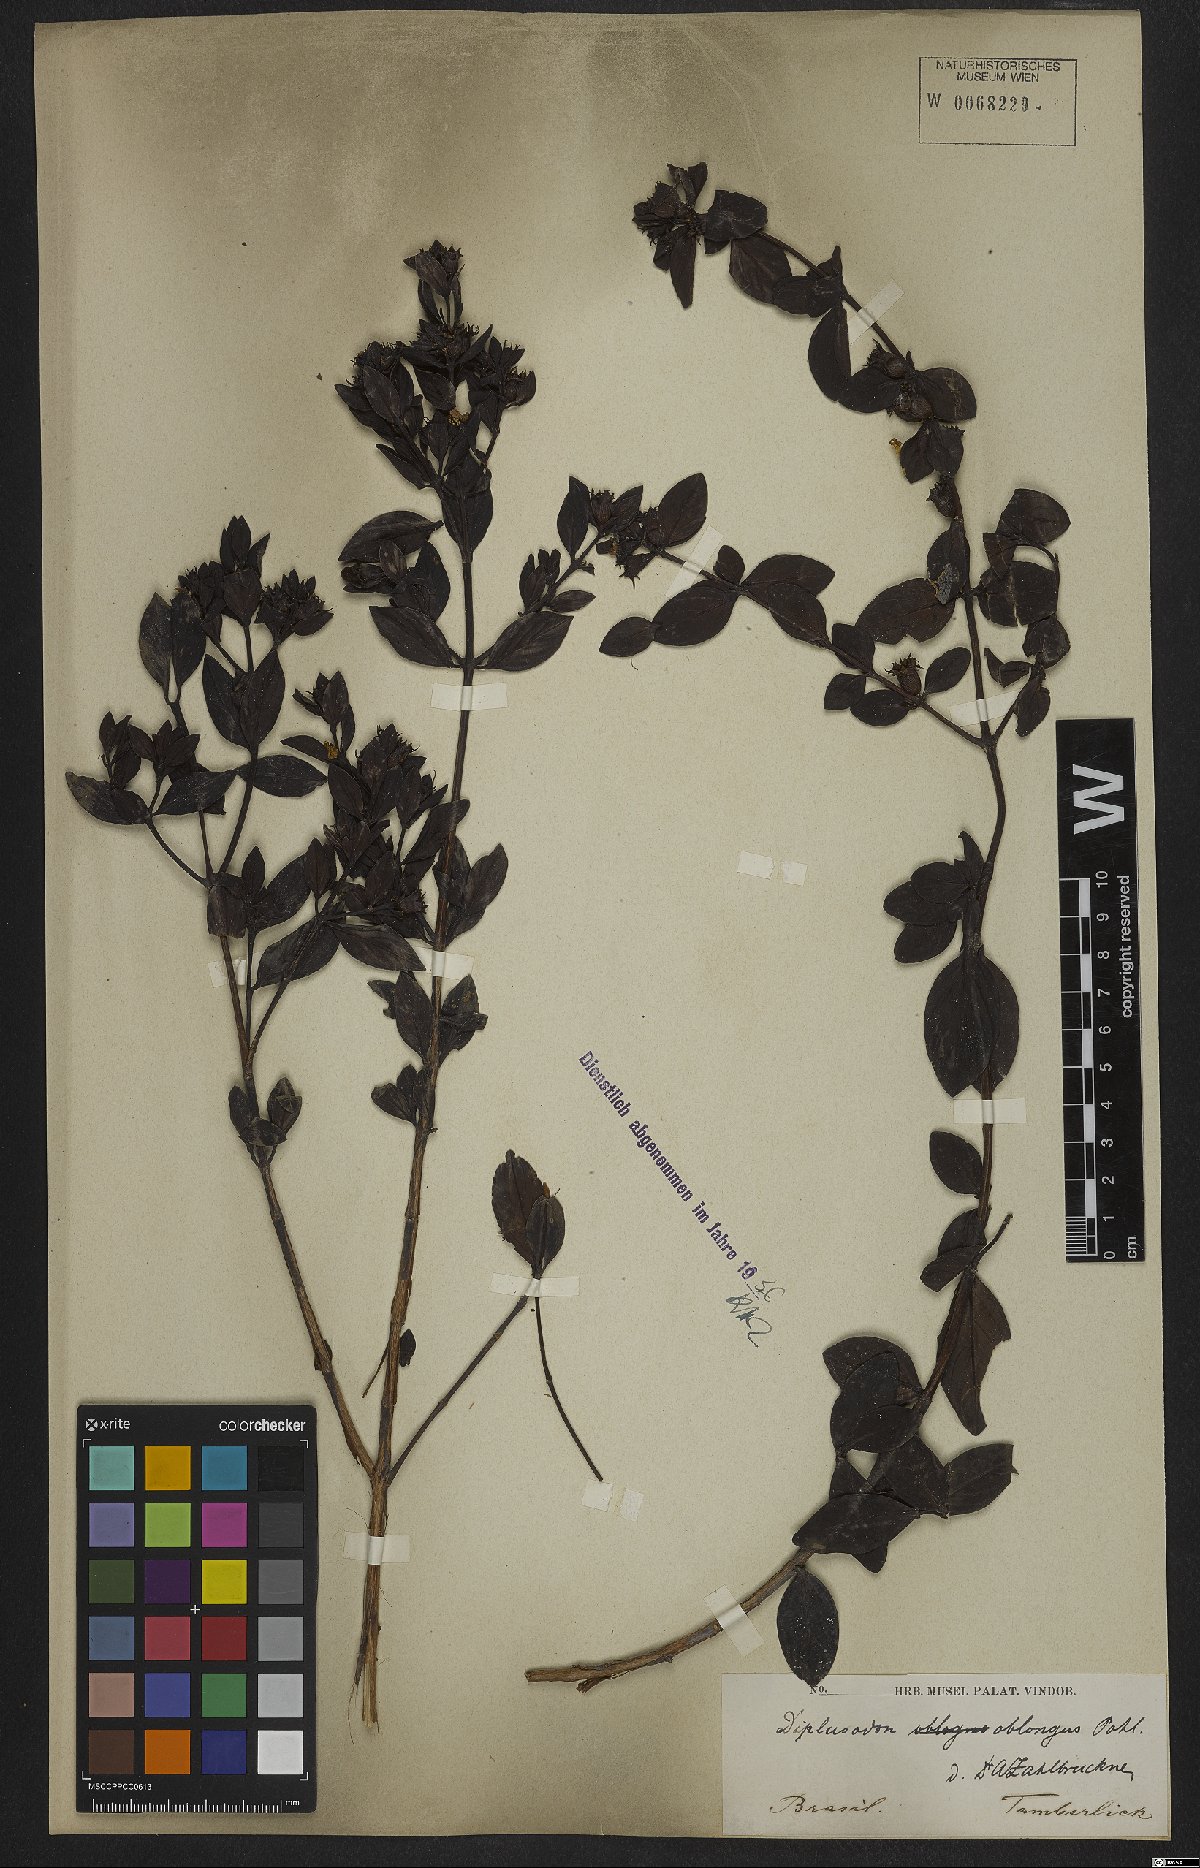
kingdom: Plantae
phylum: Tracheophyta
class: Magnoliopsida
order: Myrtales
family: Lythraceae
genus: Diplusodon
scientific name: Diplusodon oblongus
